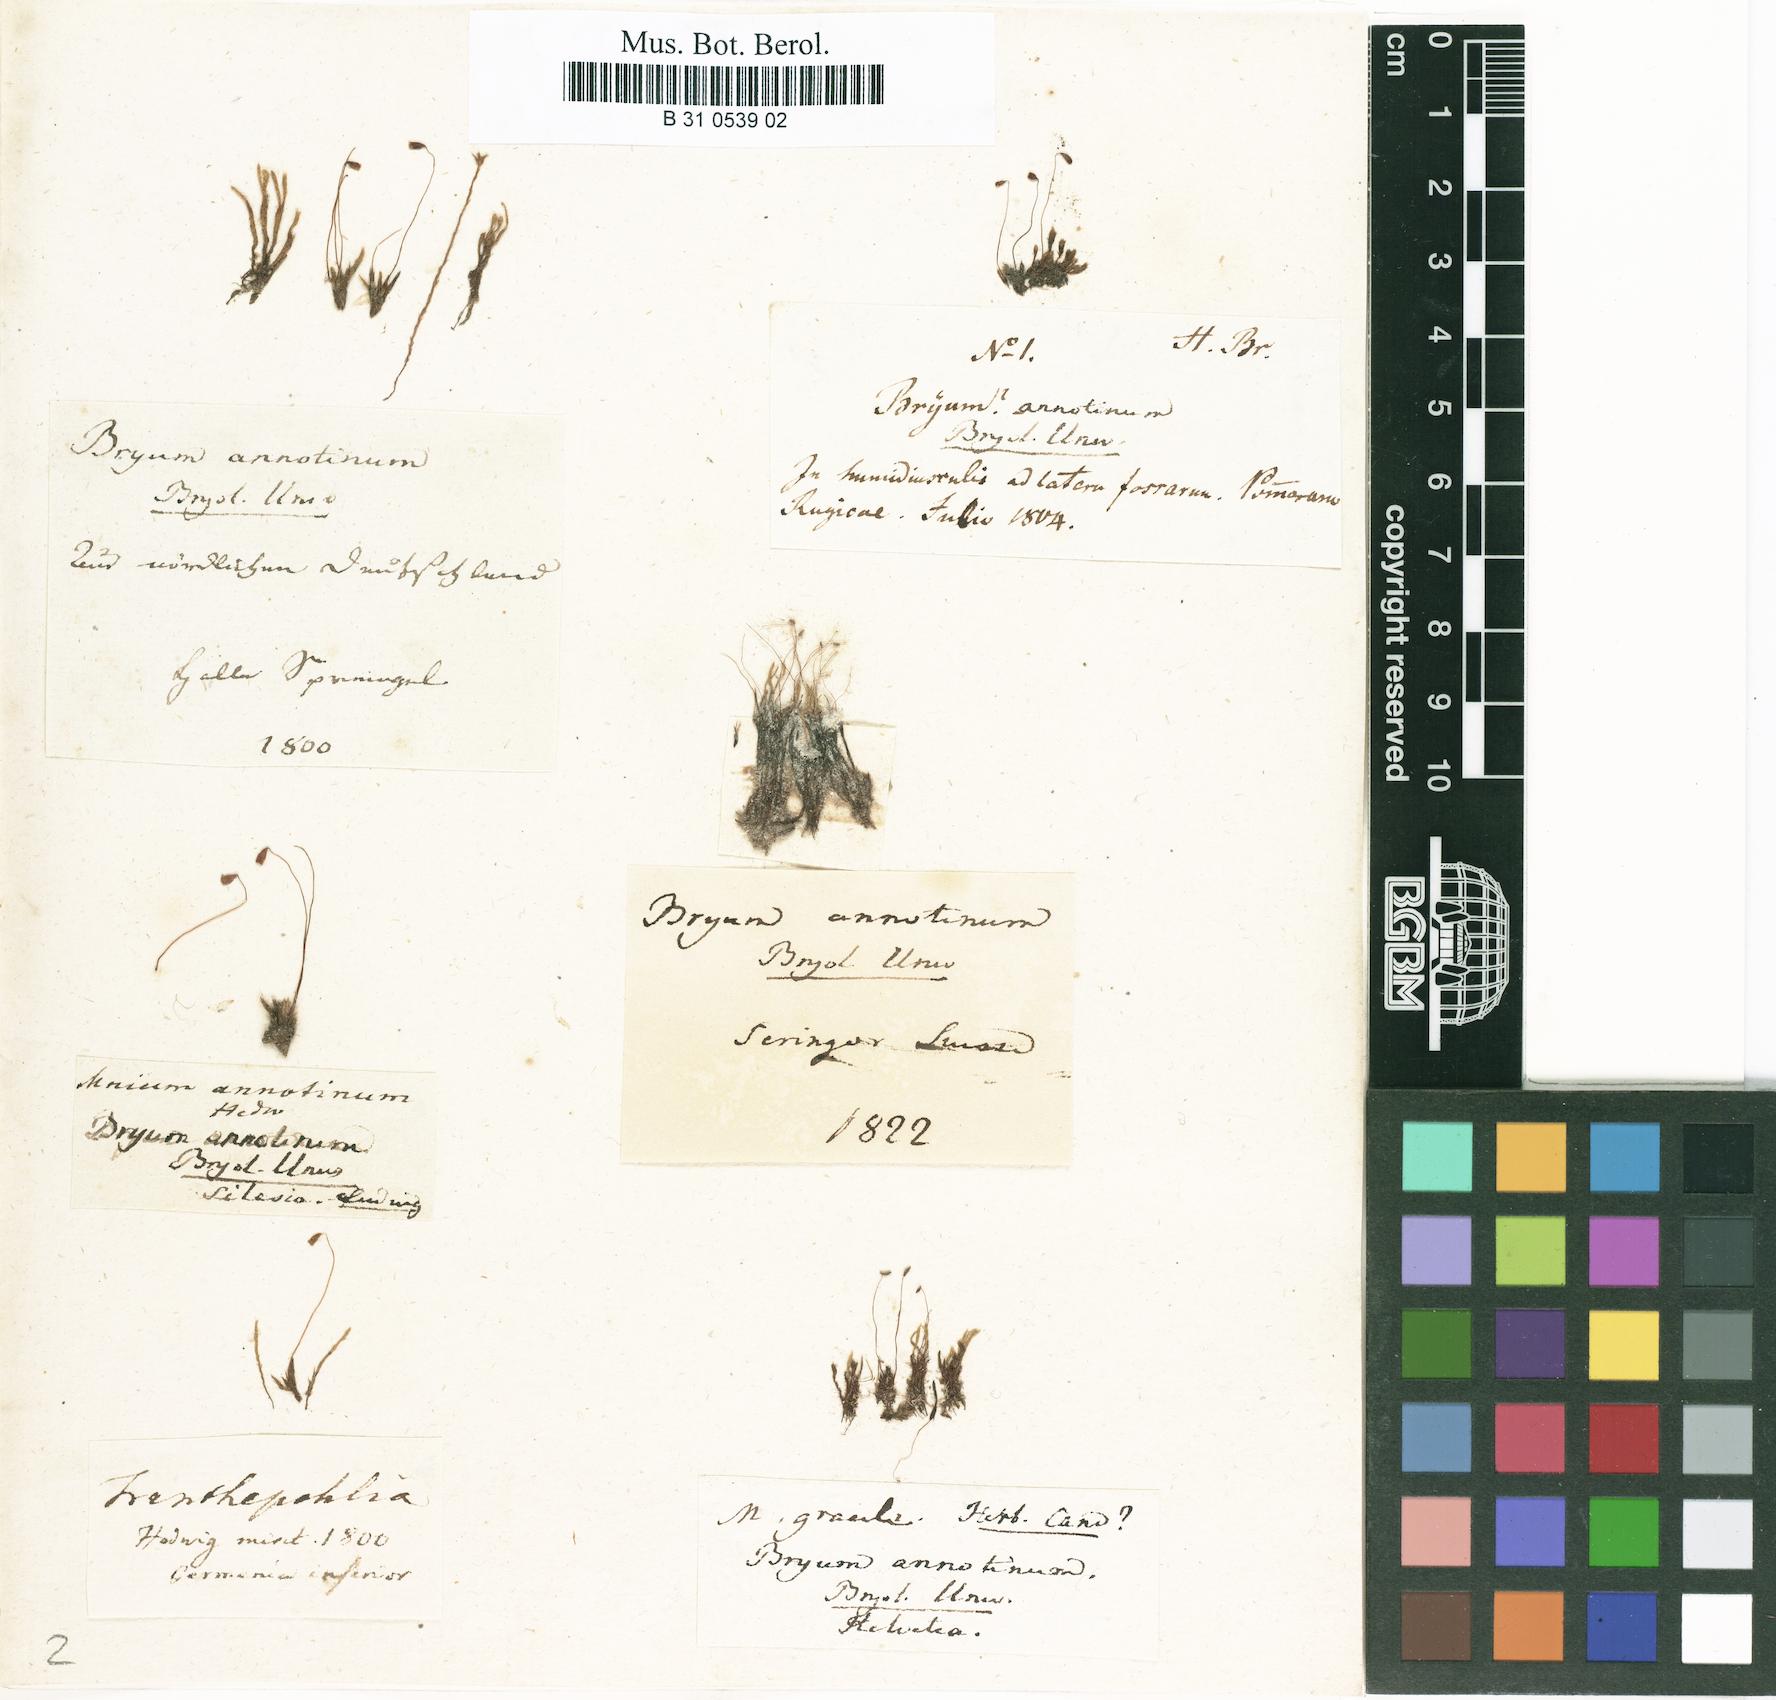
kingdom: Plantae
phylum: Bryophyta
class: Bryopsida
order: Bryales
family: Mniaceae
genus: Pohlia
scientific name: Pohlia annotina
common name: Pale-fruited nodding moss
